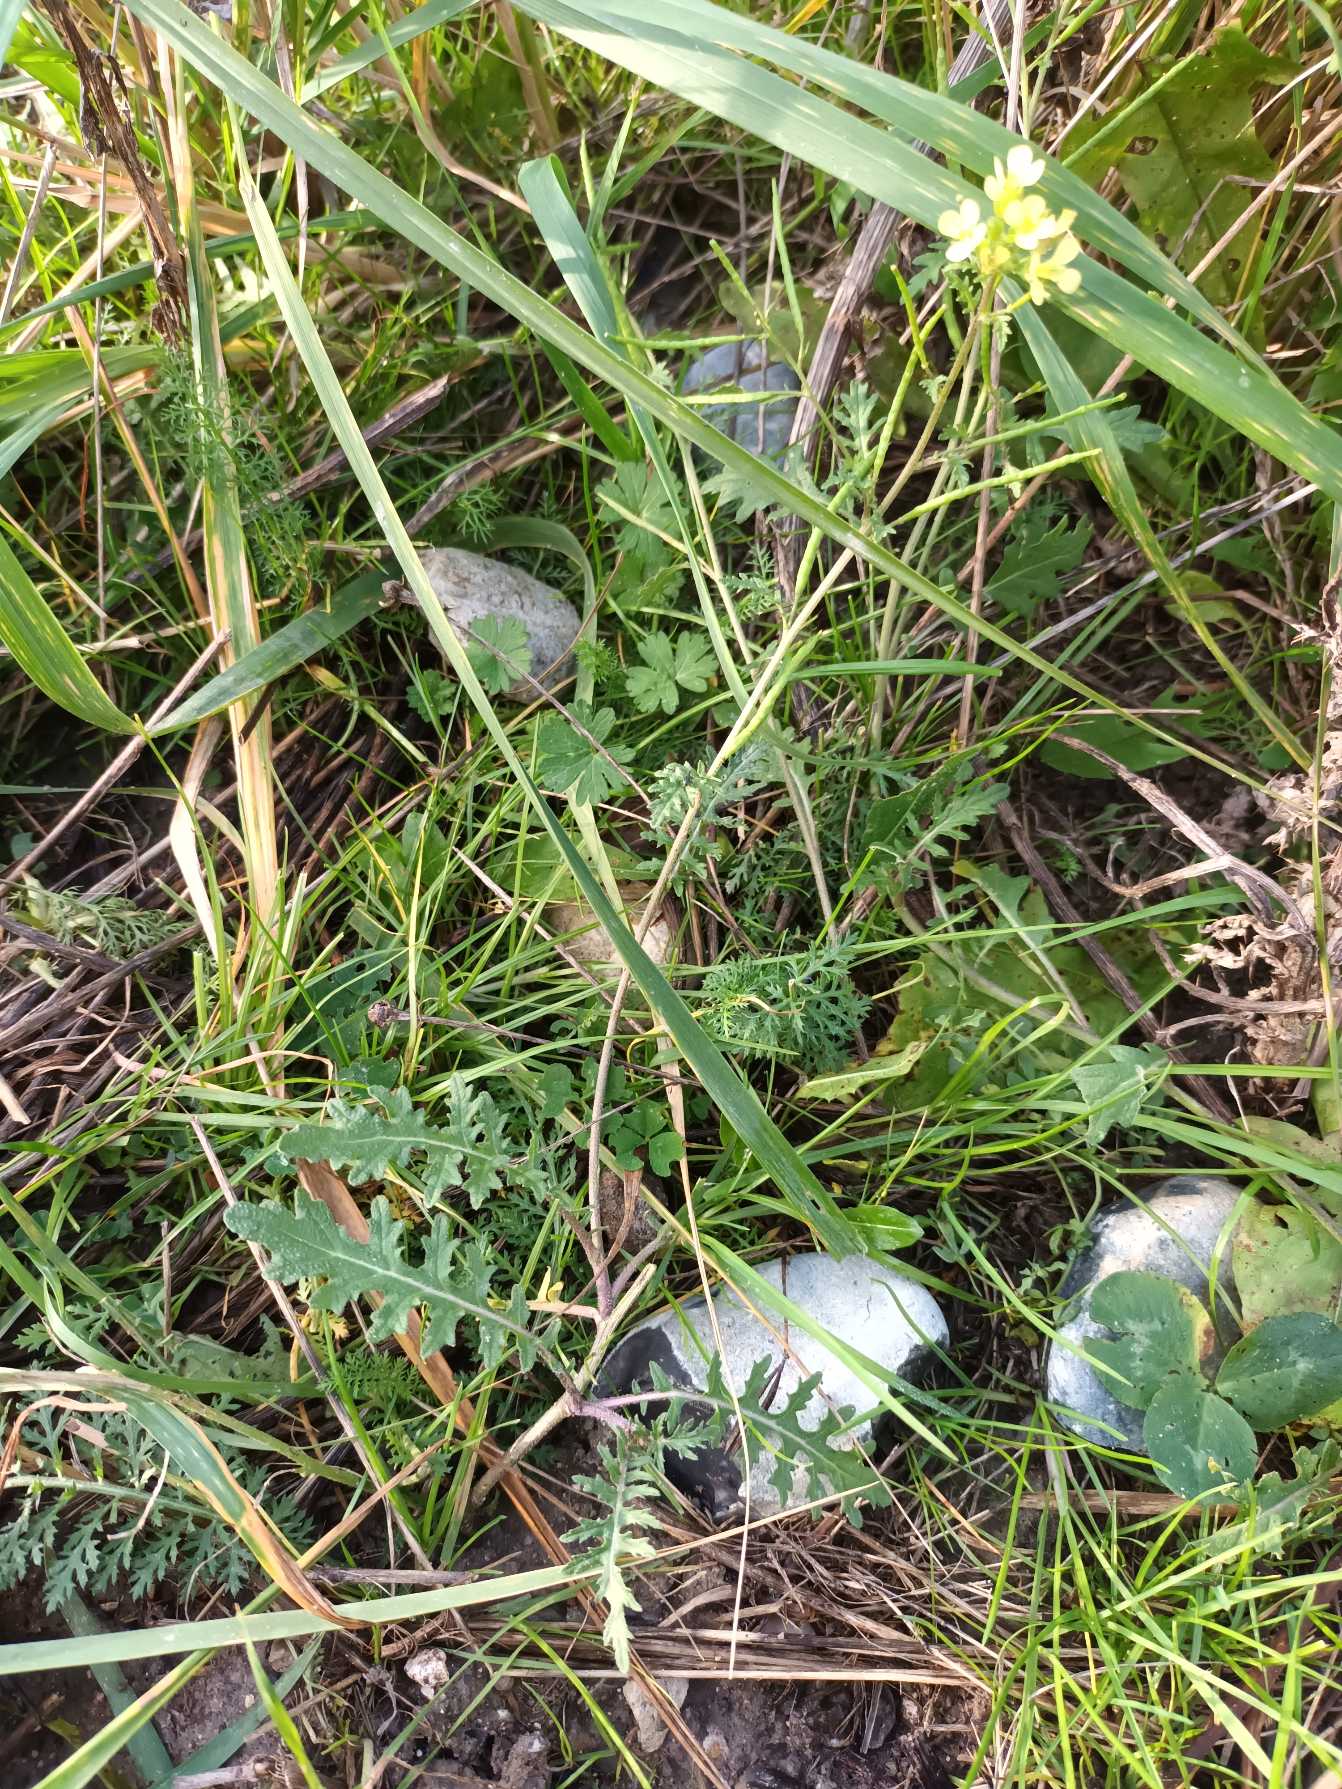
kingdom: Plantae
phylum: Tracheophyta
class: Magnoliopsida
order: Brassicales
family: Brassicaceae
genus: Erucastrum
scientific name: Erucastrum gallicum
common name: Svinesennep
